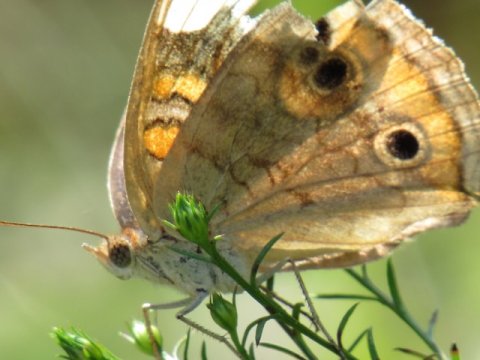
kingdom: Animalia
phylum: Arthropoda
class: Insecta
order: Lepidoptera
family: Nymphalidae
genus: Junonia
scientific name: Junonia coenia
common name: Common Buckeye
